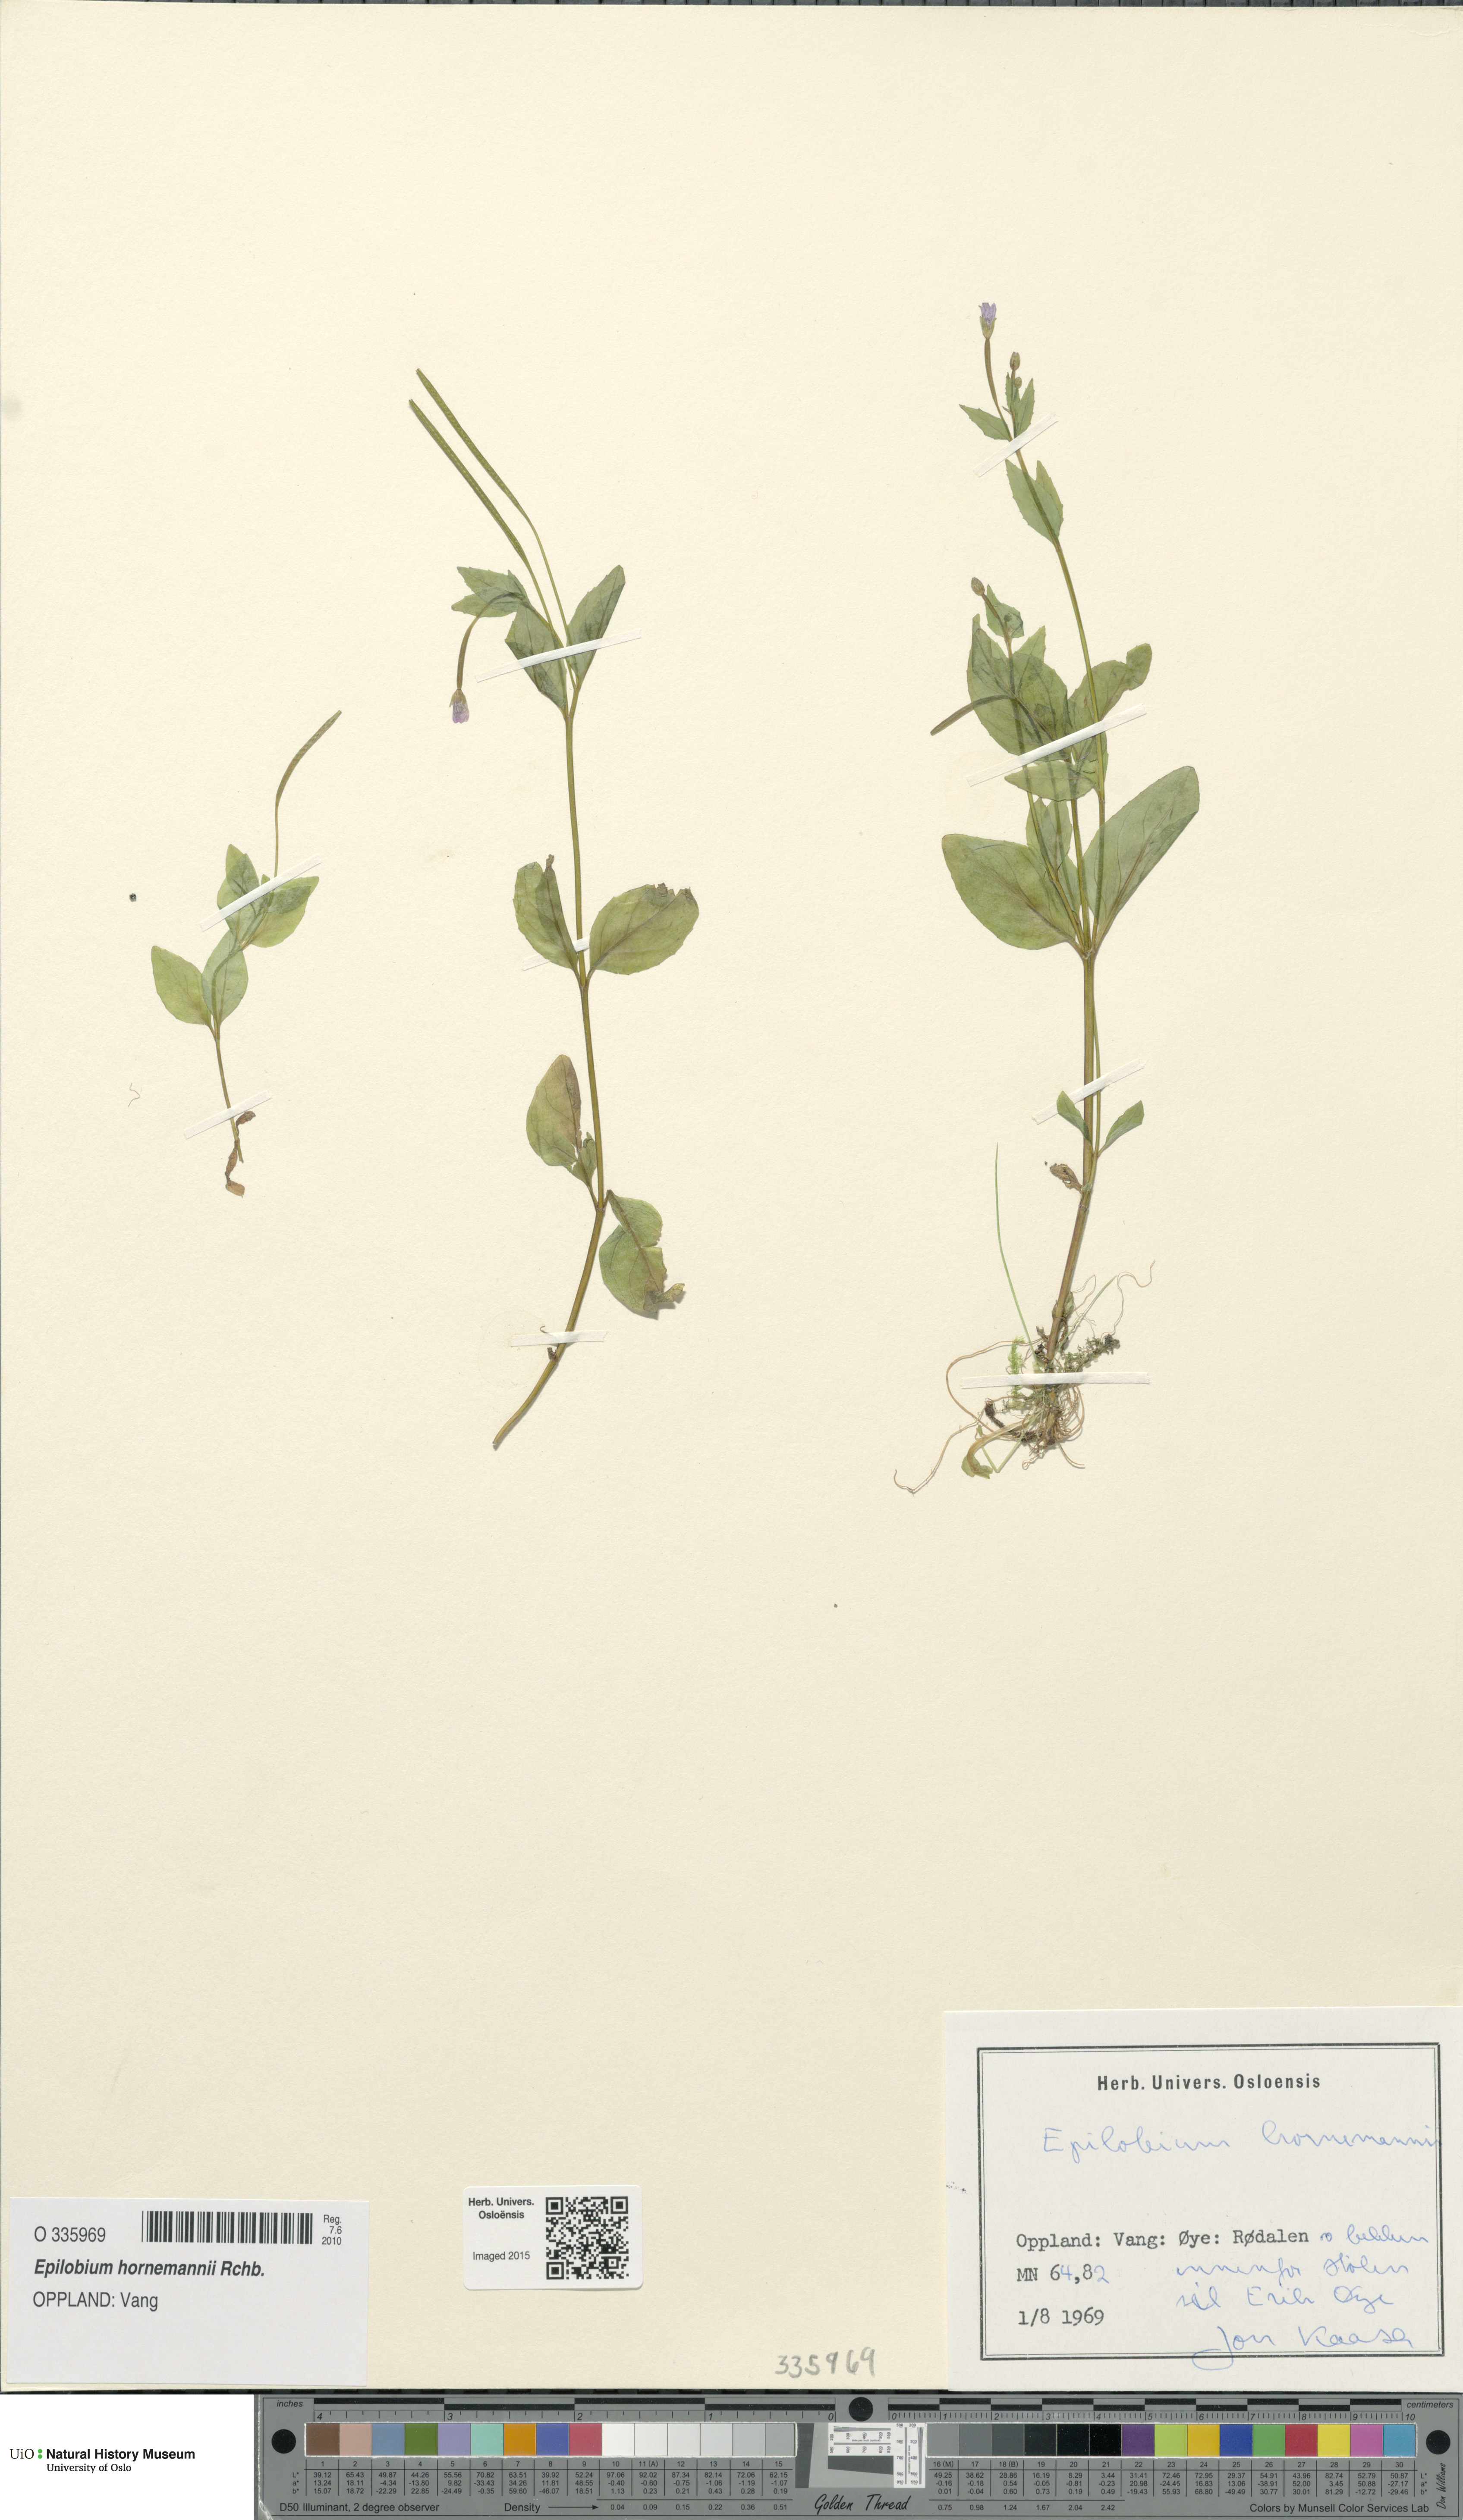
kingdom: Plantae
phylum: Tracheophyta
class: Magnoliopsida
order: Myrtales
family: Onagraceae
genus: Epilobium
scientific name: Epilobium hornemannii
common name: Hornemann's willowherb
